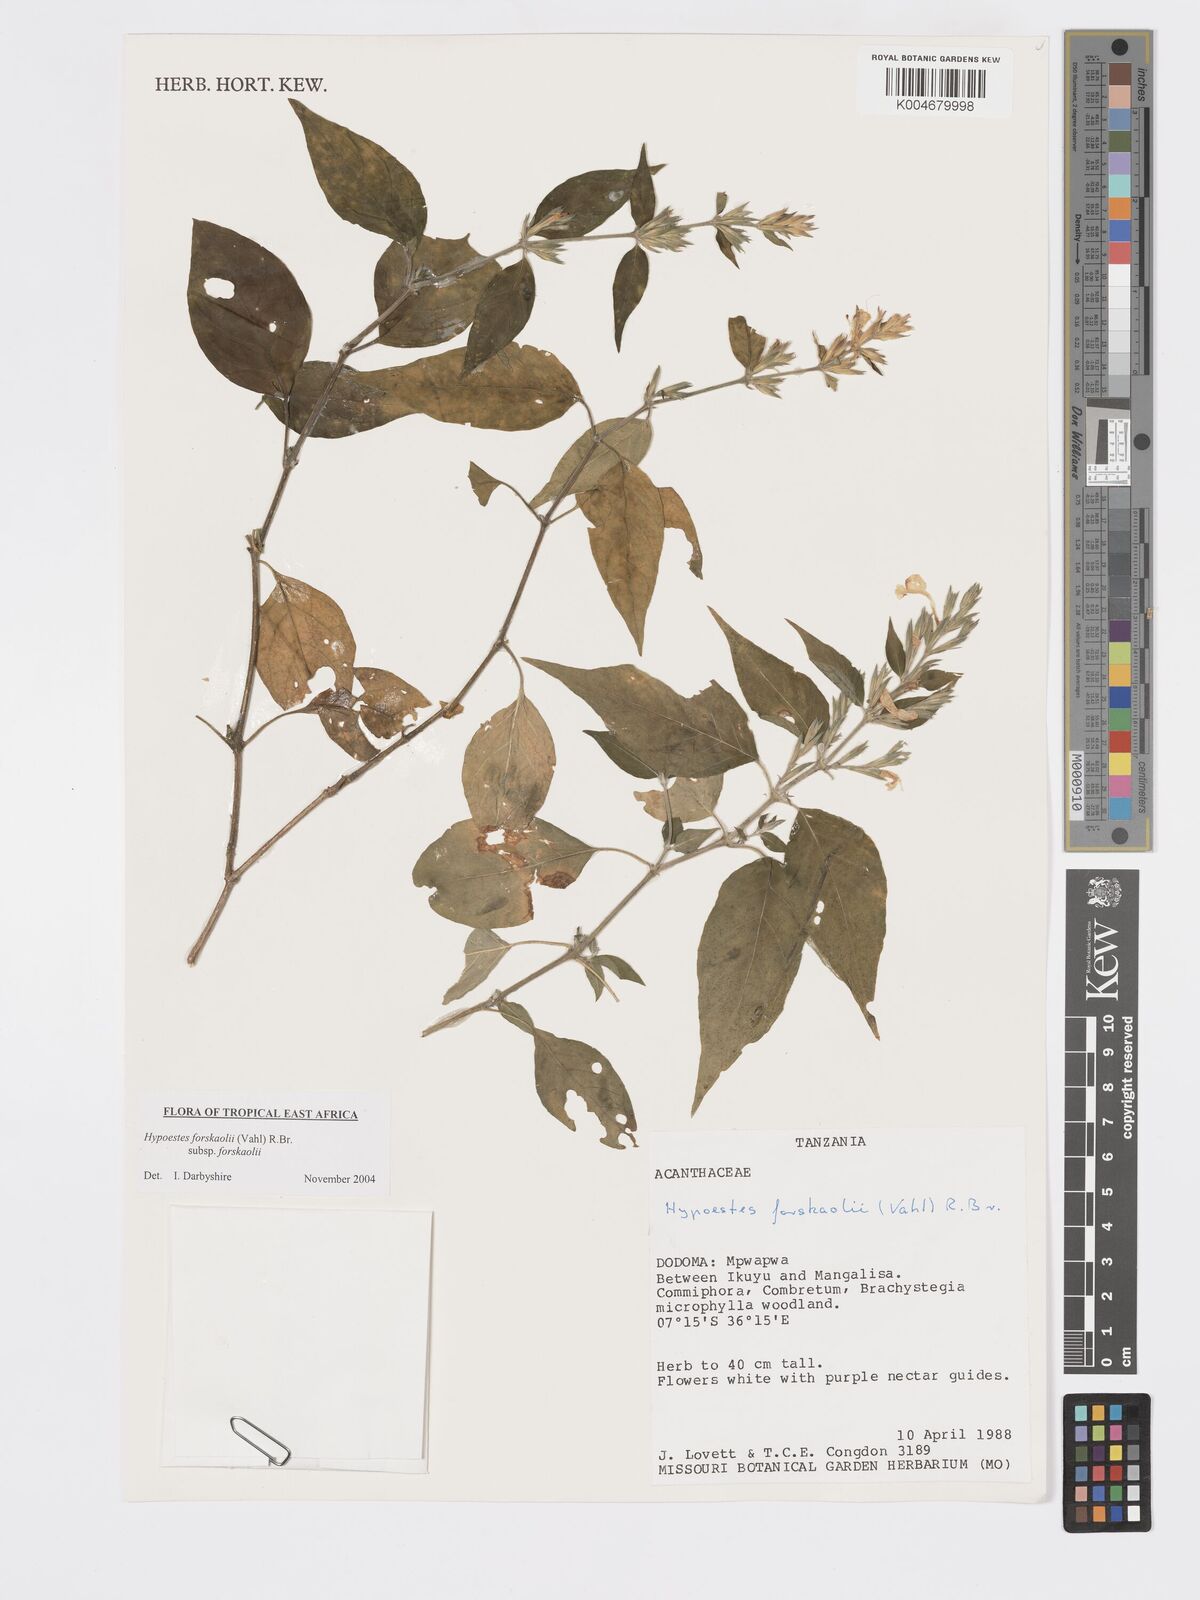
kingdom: Plantae
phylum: Tracheophyta
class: Magnoliopsida
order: Lamiales
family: Acanthaceae
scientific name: Acanthaceae
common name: Acanthaceae
